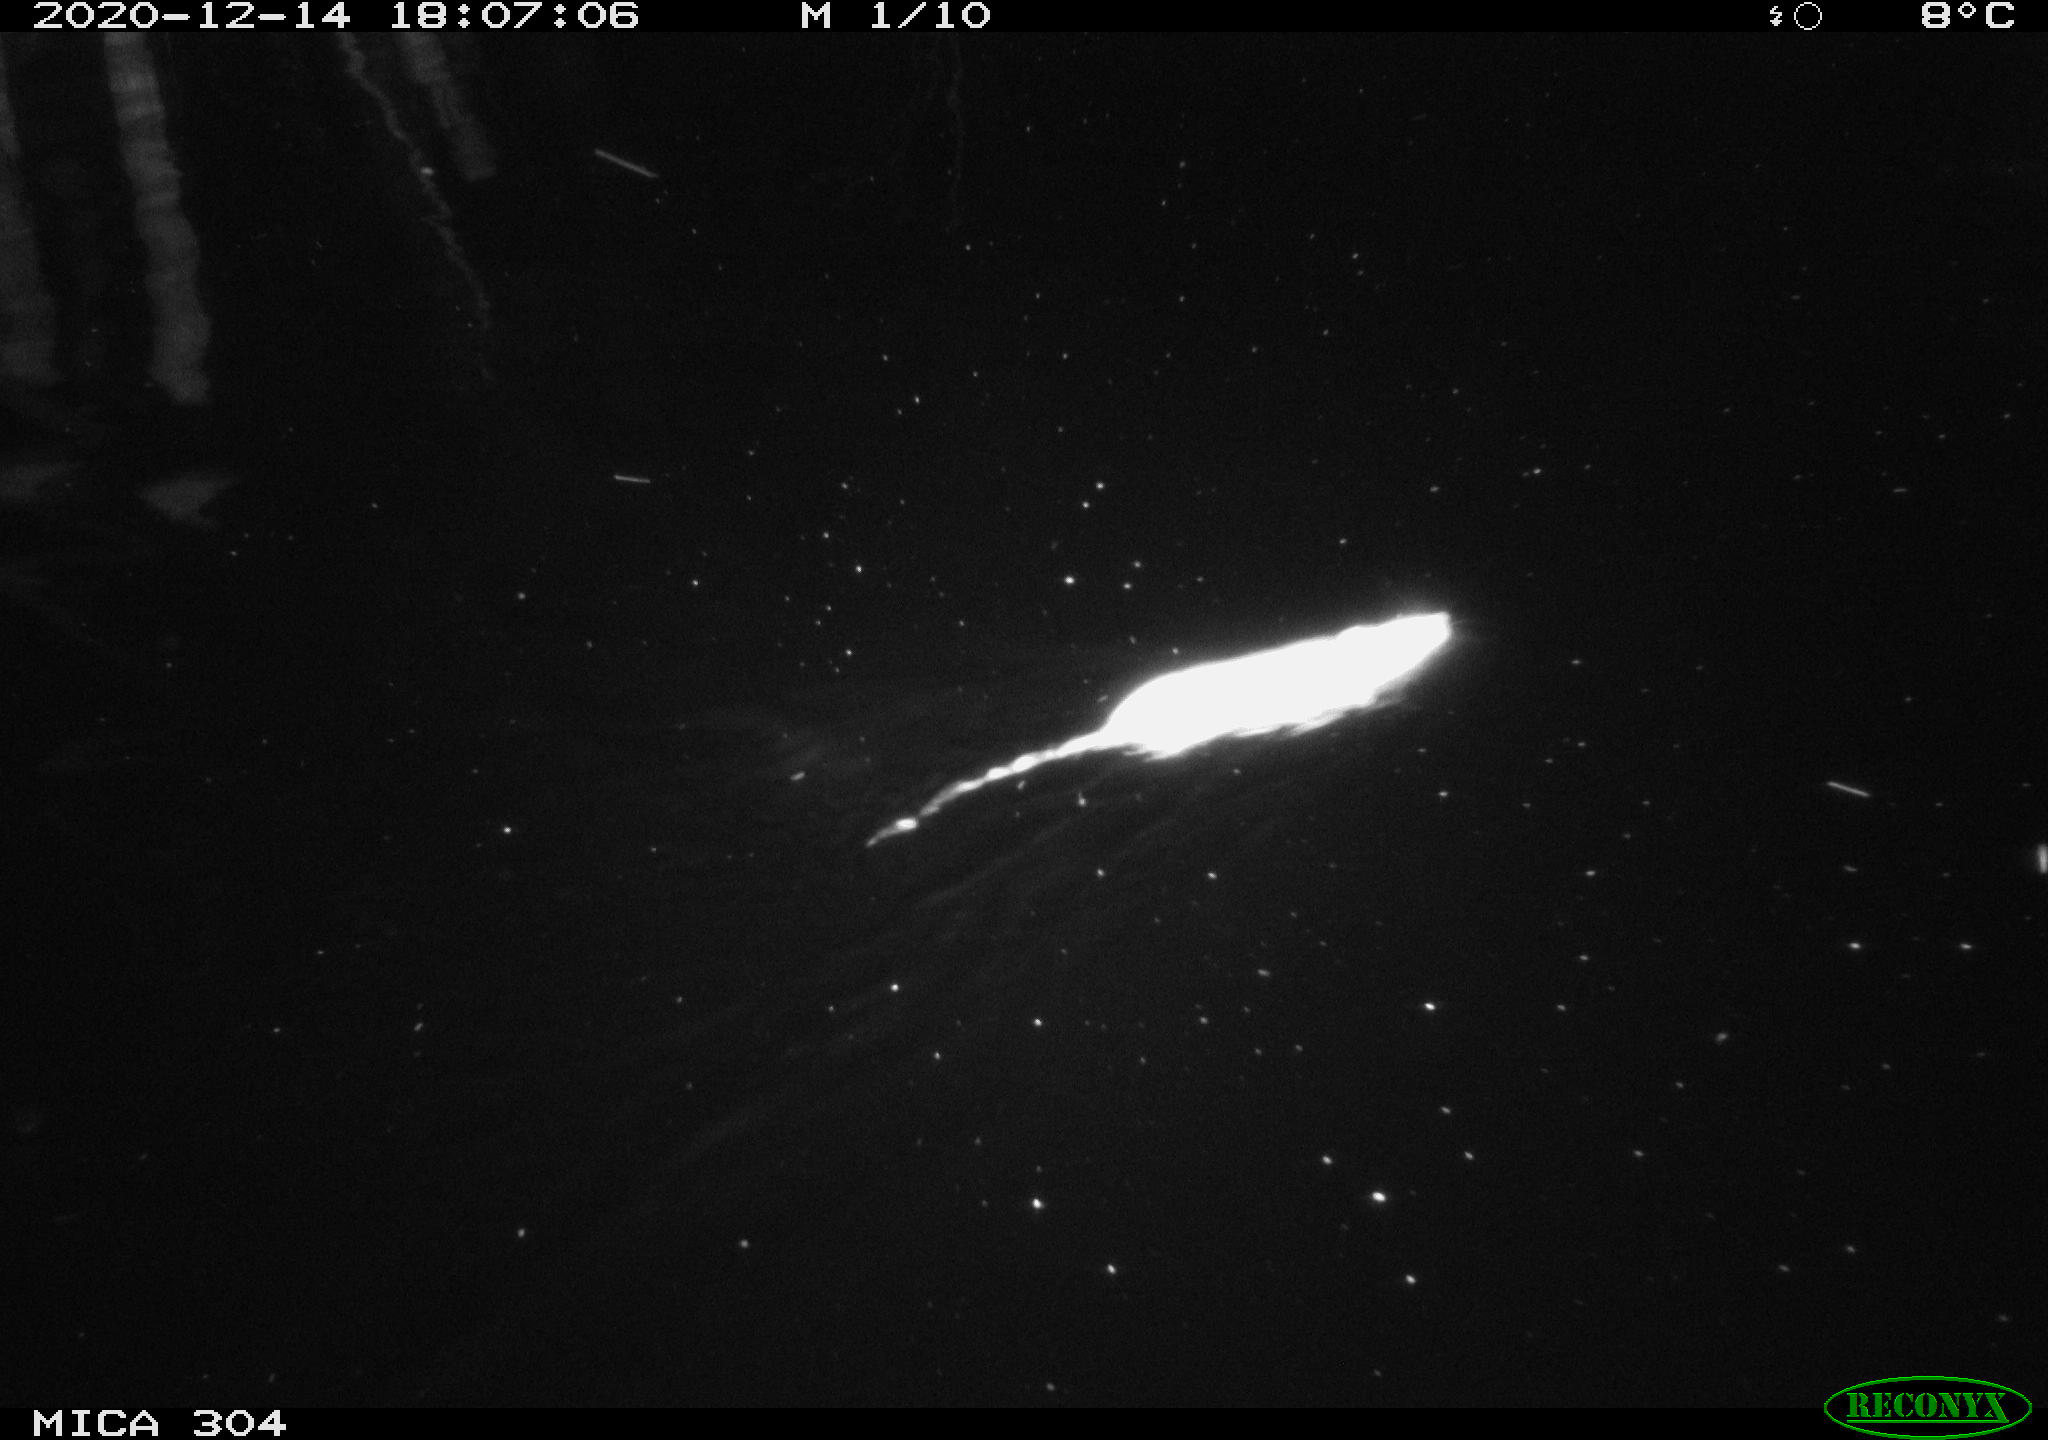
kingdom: Animalia
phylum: Chordata
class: Mammalia
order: Rodentia
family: Muridae
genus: Rattus
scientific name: Rattus norvegicus
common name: Brown rat
